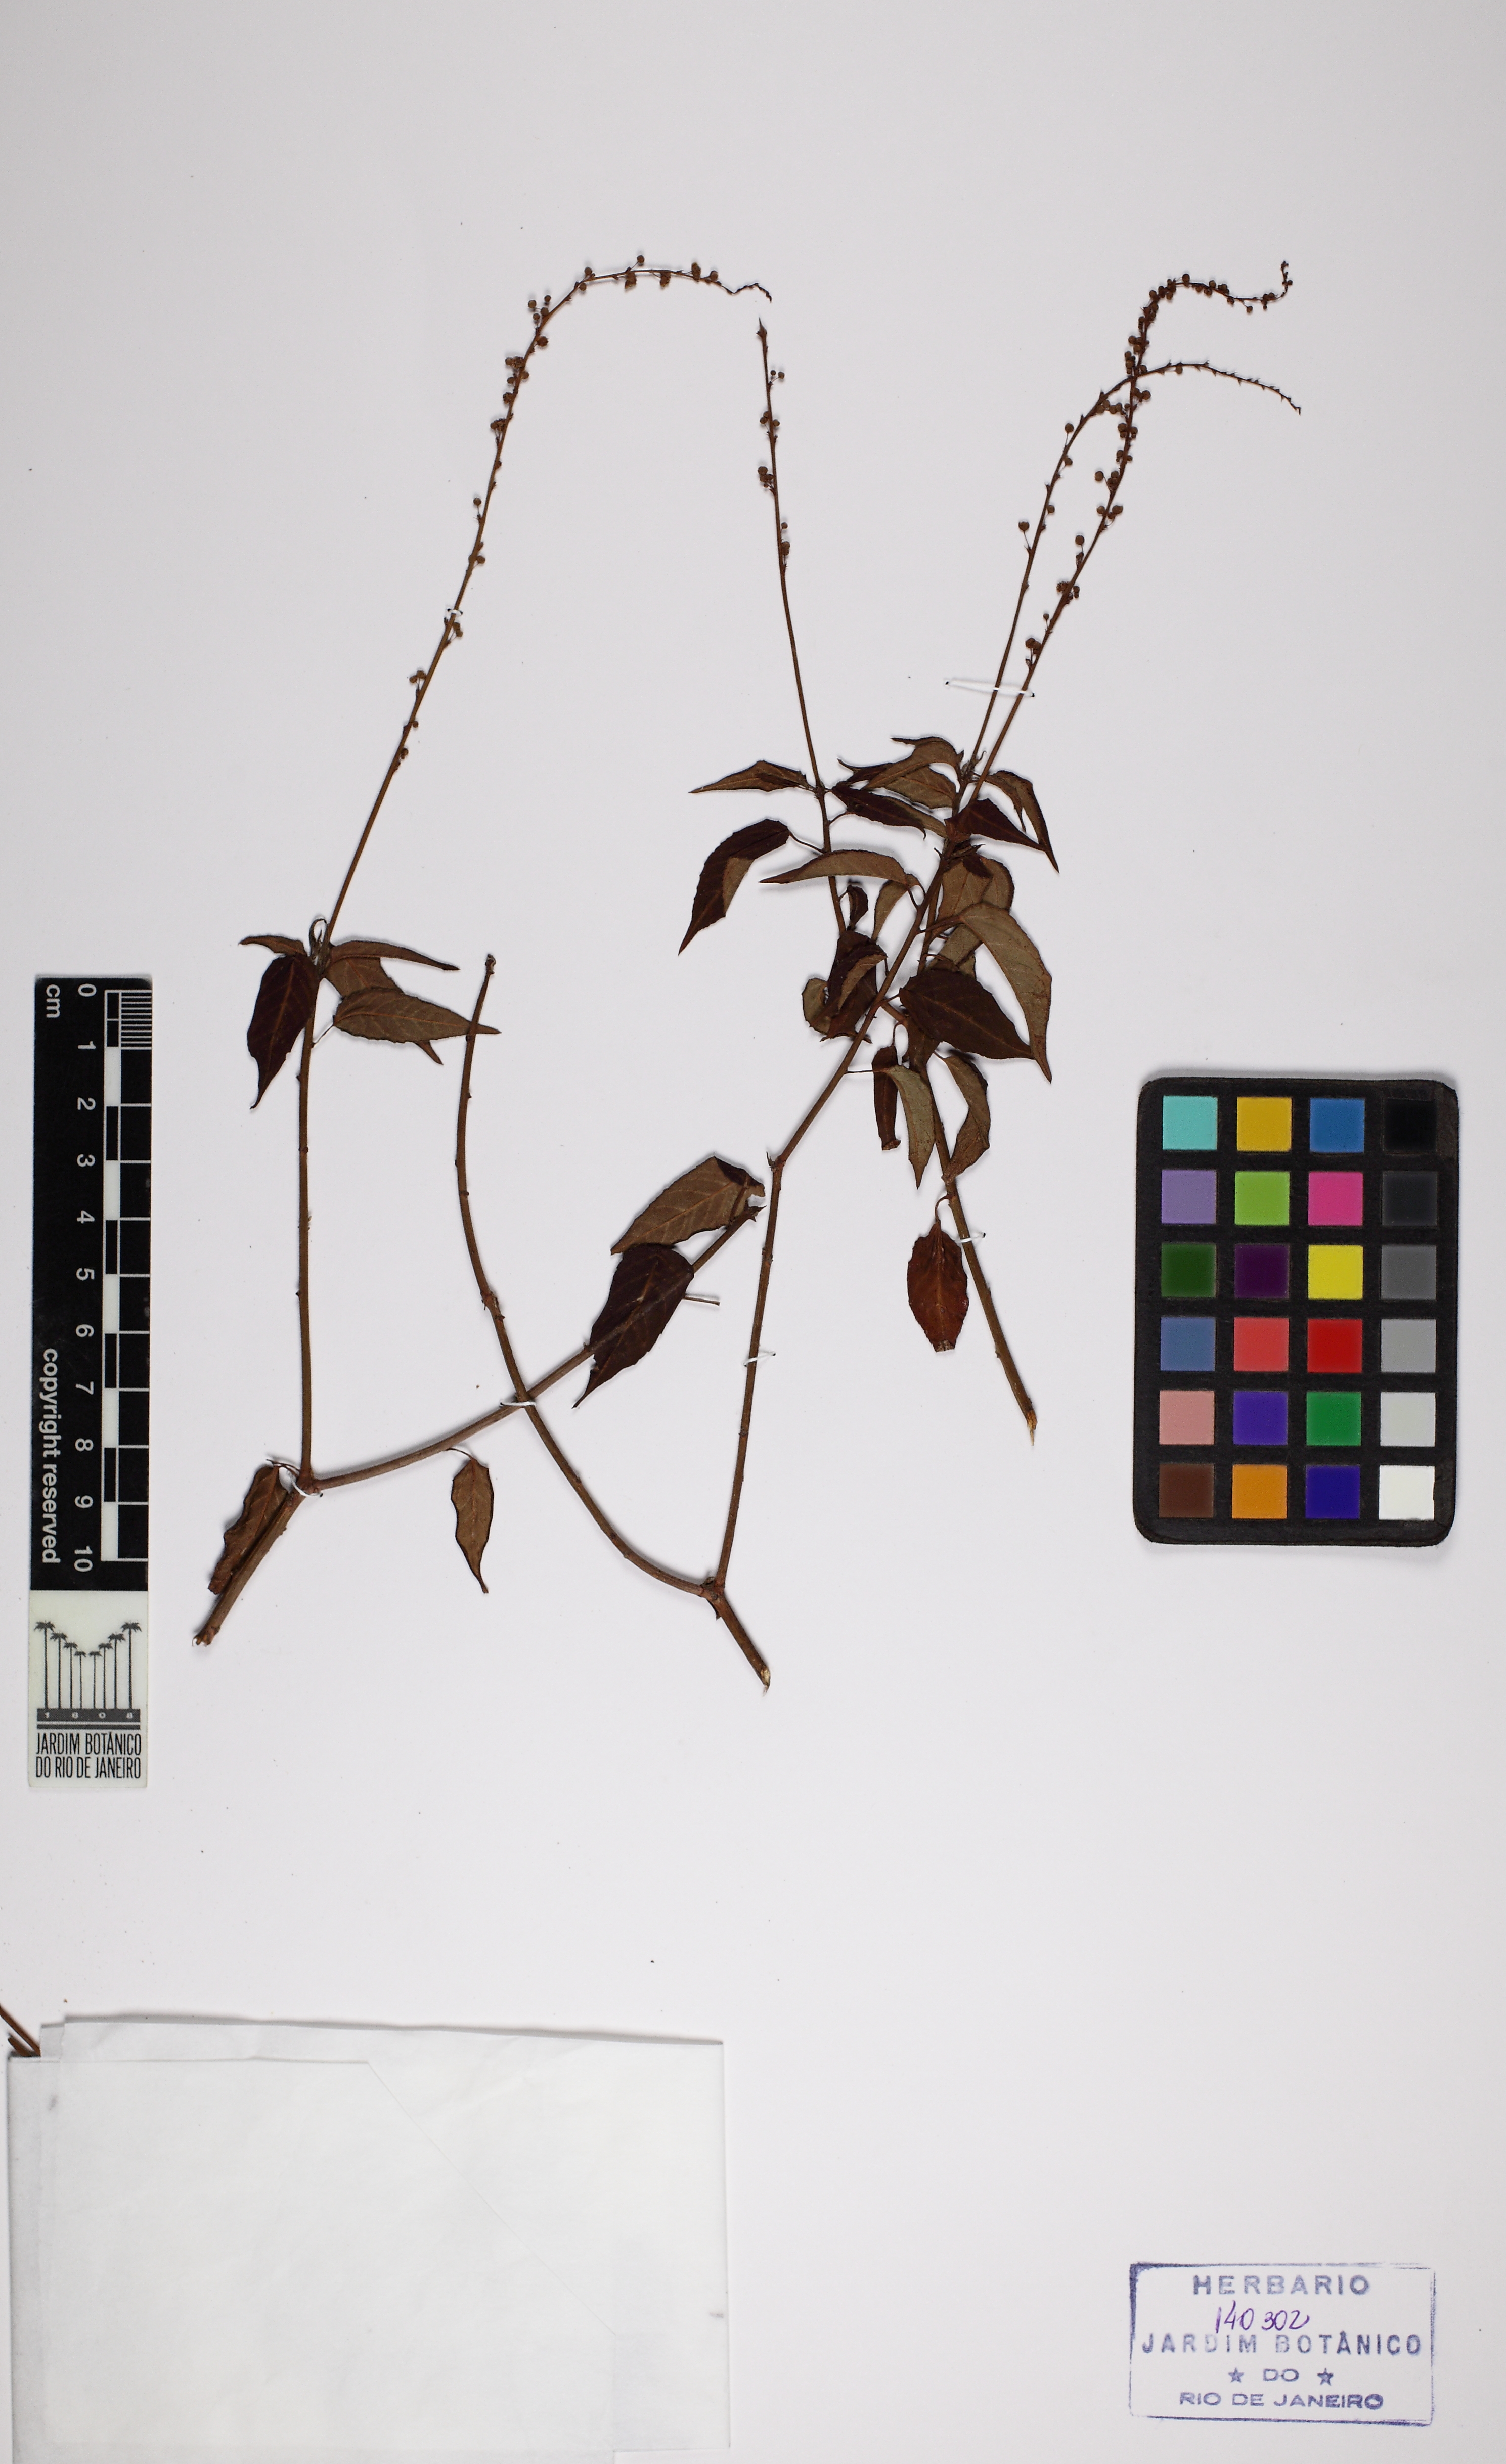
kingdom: Plantae
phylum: Tracheophyta
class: Magnoliopsida
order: Malpighiales
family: Euphorbiaceae
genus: Astraea
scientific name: Astraea macroura
